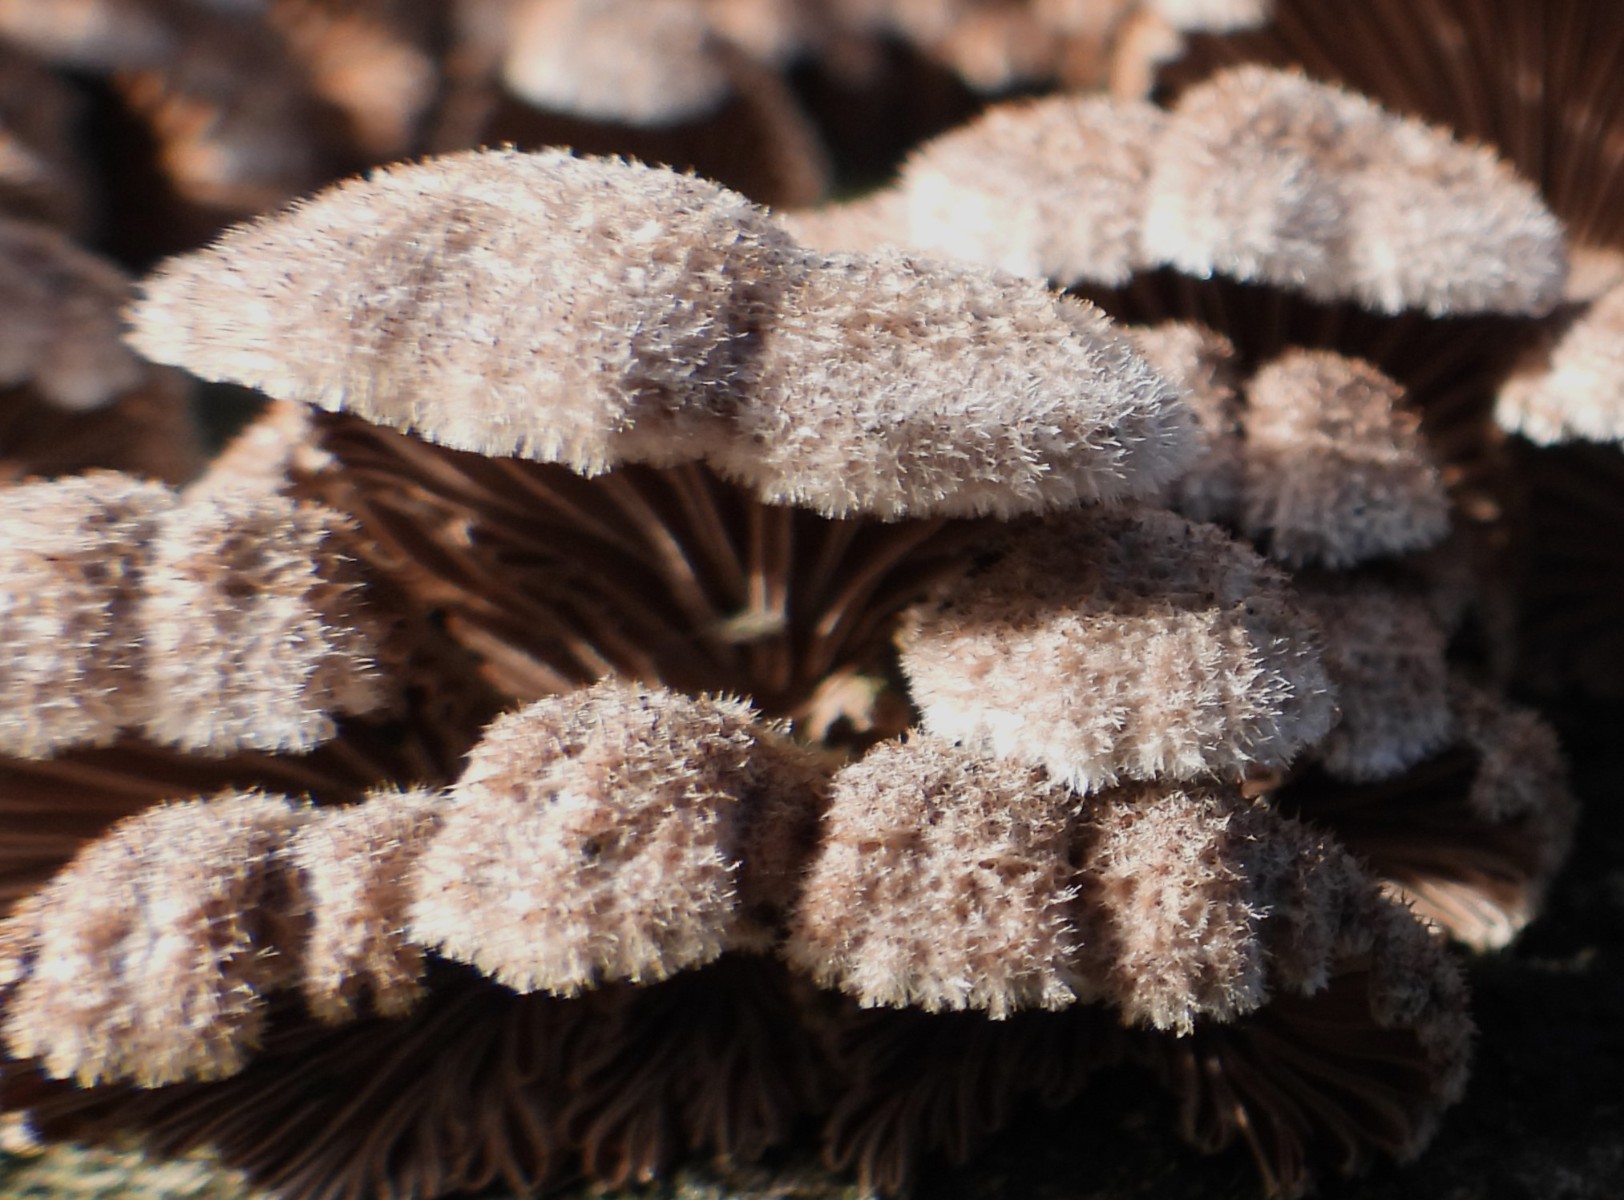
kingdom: Fungi
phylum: Basidiomycota
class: Agaricomycetes
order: Agaricales
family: Schizophyllaceae
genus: Schizophyllum
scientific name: Schizophyllum commune
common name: kløvblad
